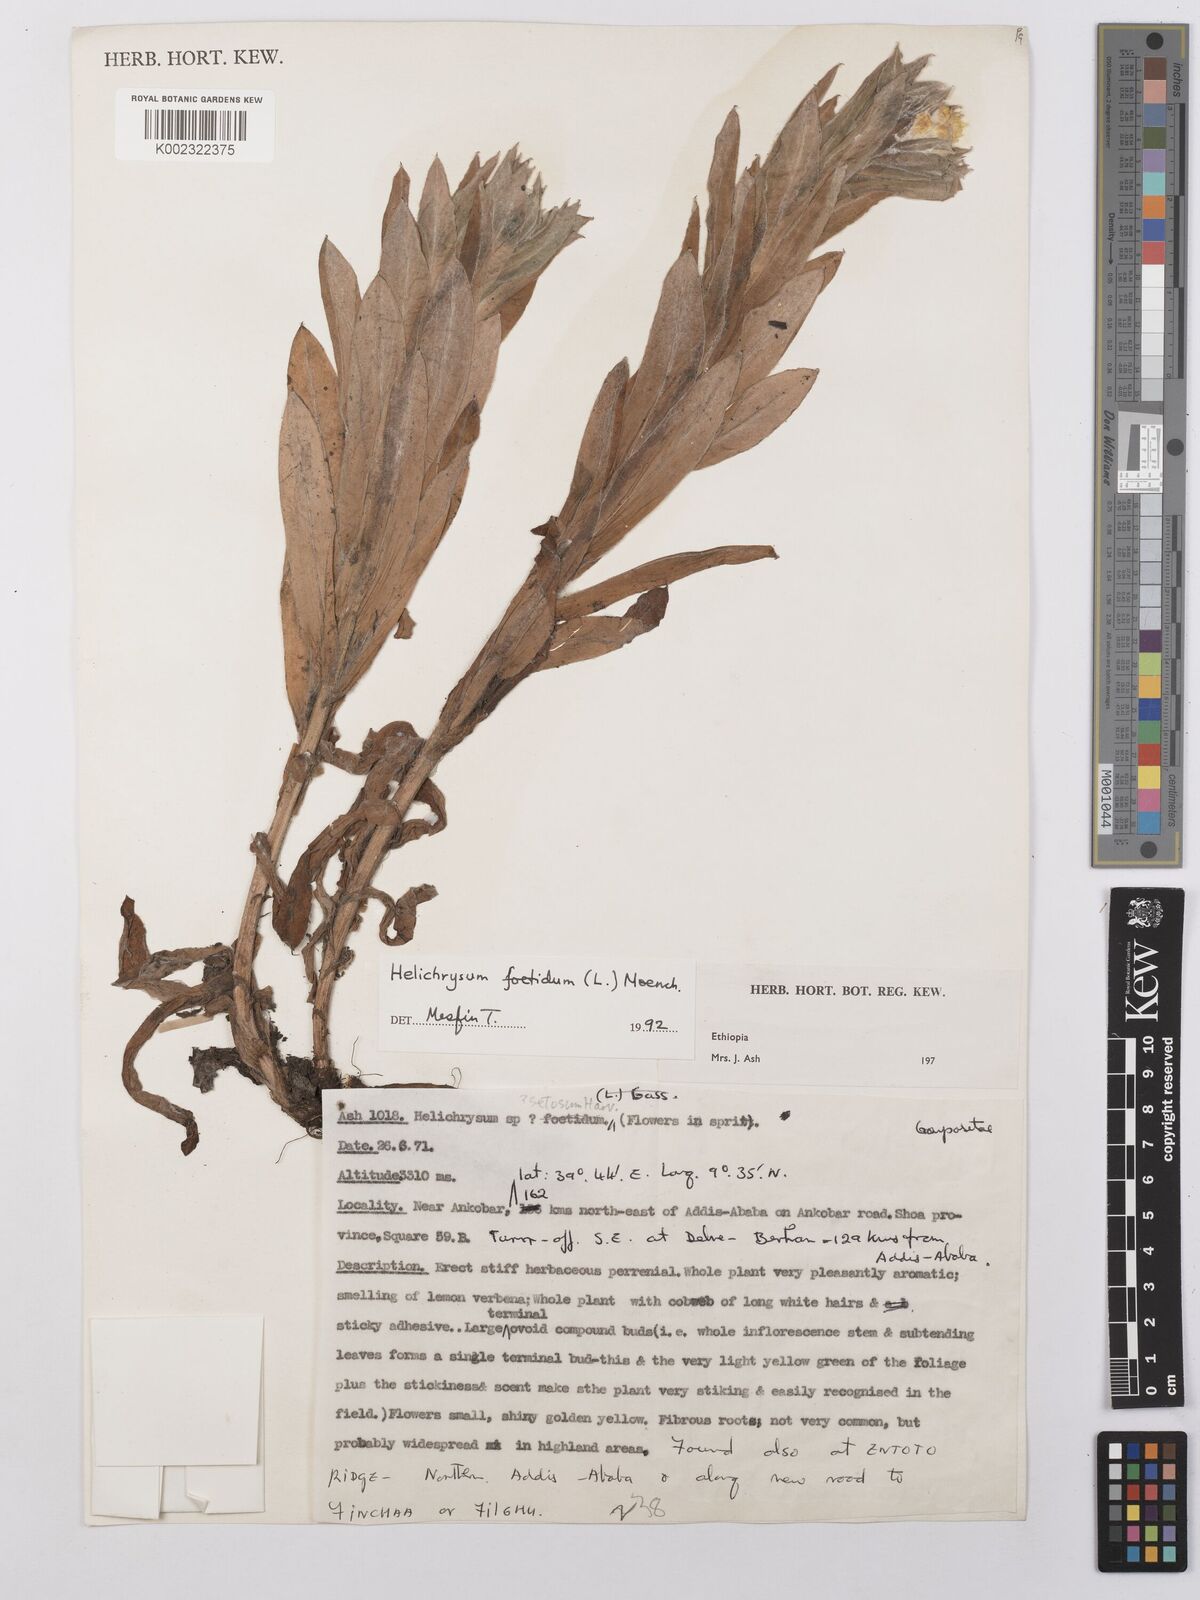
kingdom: Plantae
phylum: Tracheophyta
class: Magnoliopsida
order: Asterales
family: Asteraceae
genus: Helichrysum
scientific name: Helichrysum foetidum
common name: Stinking everlasting
